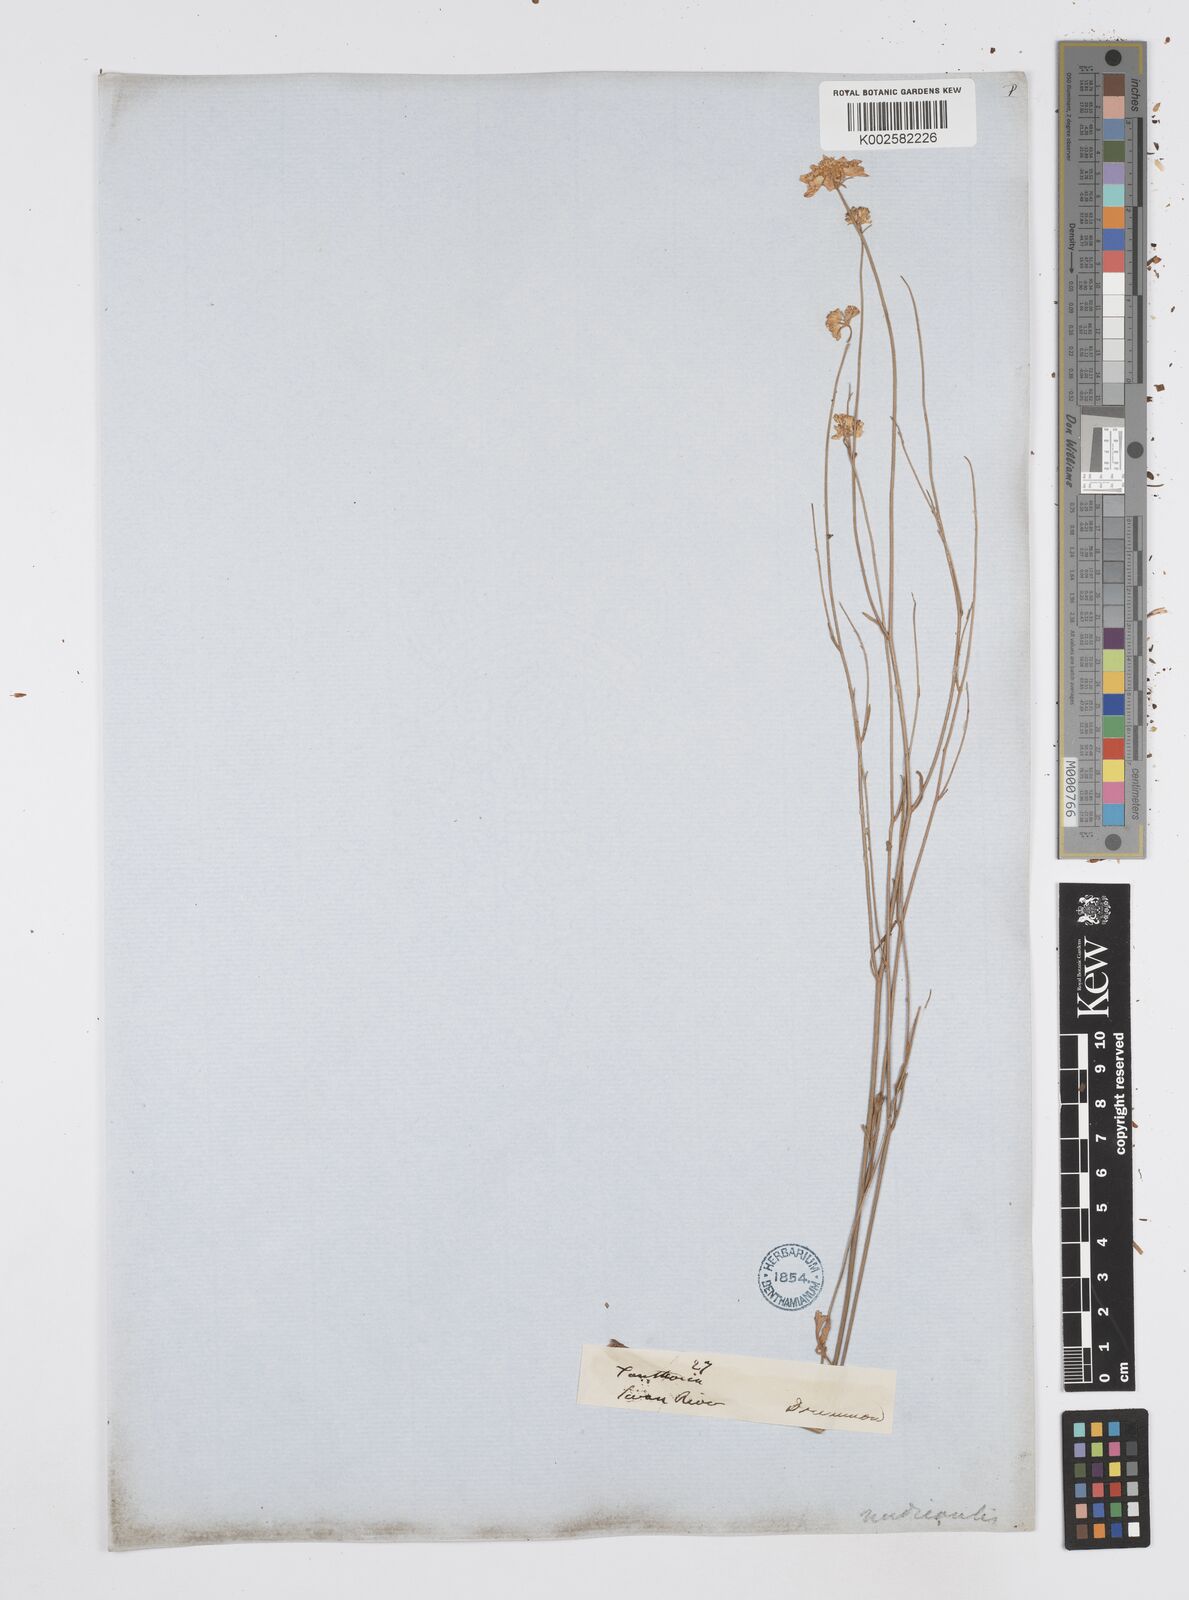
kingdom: Plantae
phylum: Tracheophyta
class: Magnoliopsida
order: Apiales
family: Apiaceae
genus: Xanthosia
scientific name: Xanthosia atkinsoniana
